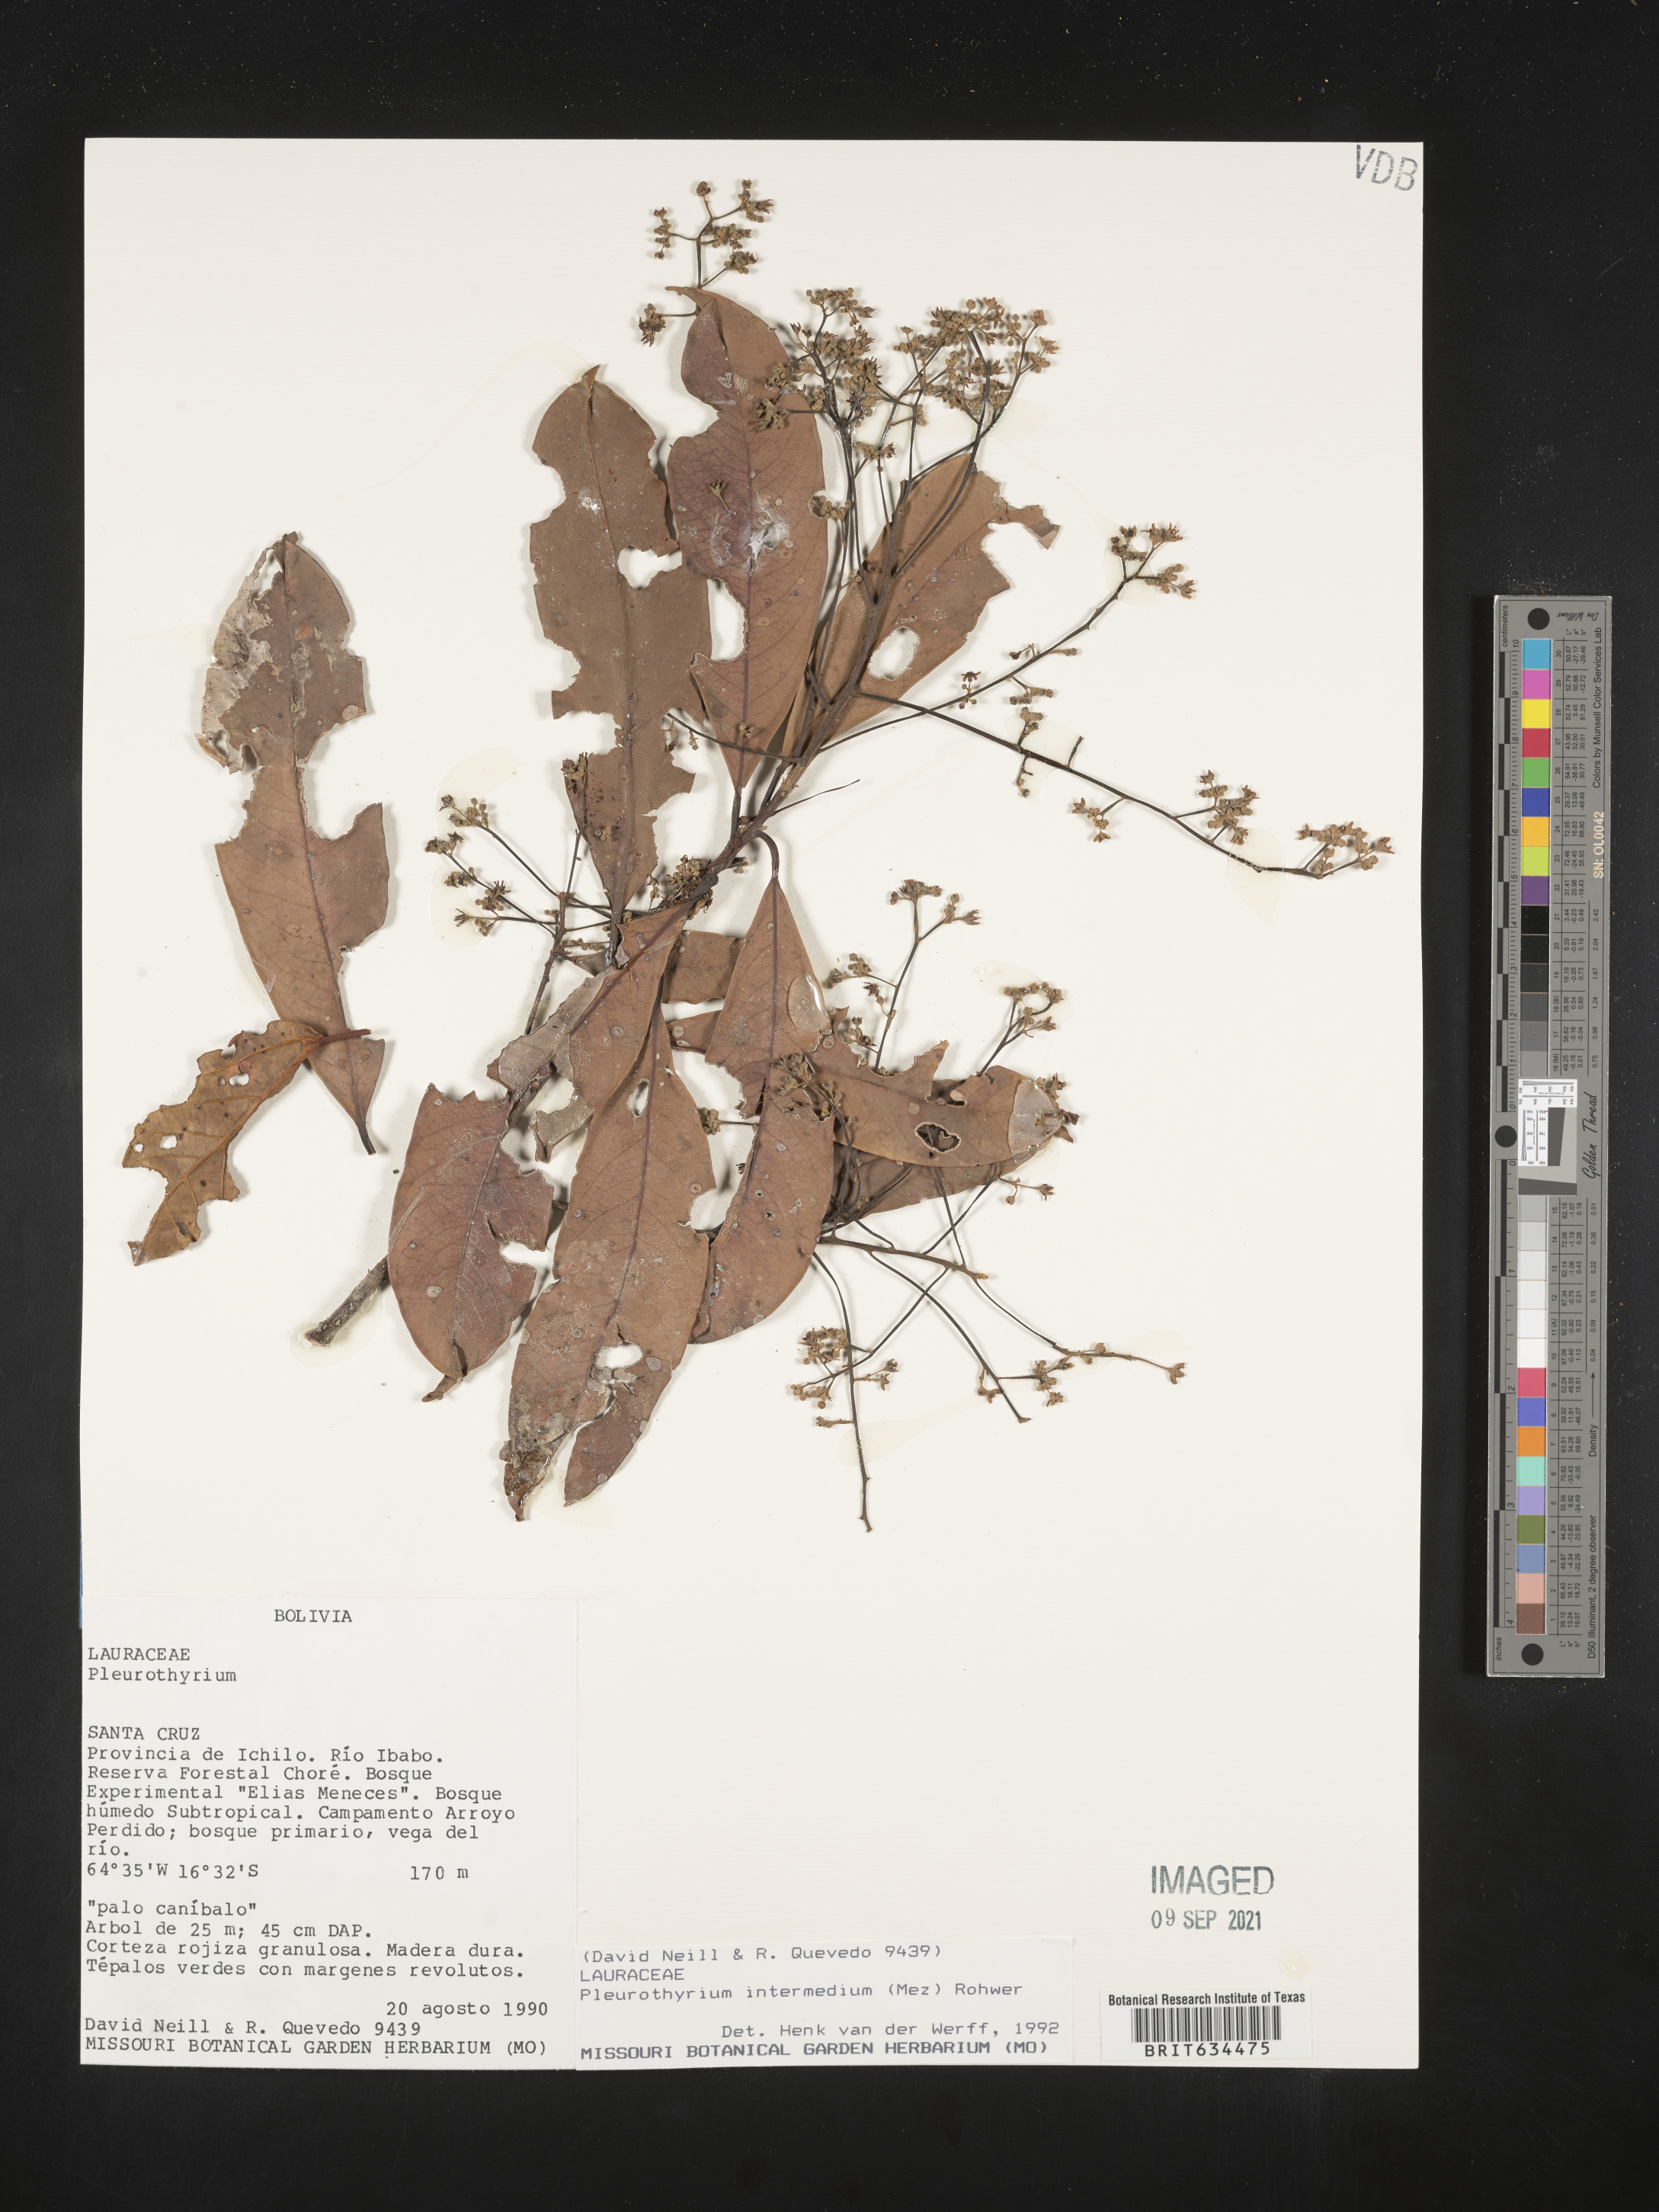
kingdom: Plantae
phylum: Tracheophyta
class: Magnoliopsida
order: Laurales
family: Lauraceae
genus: Pleurothyrium
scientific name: Pleurothyrium
